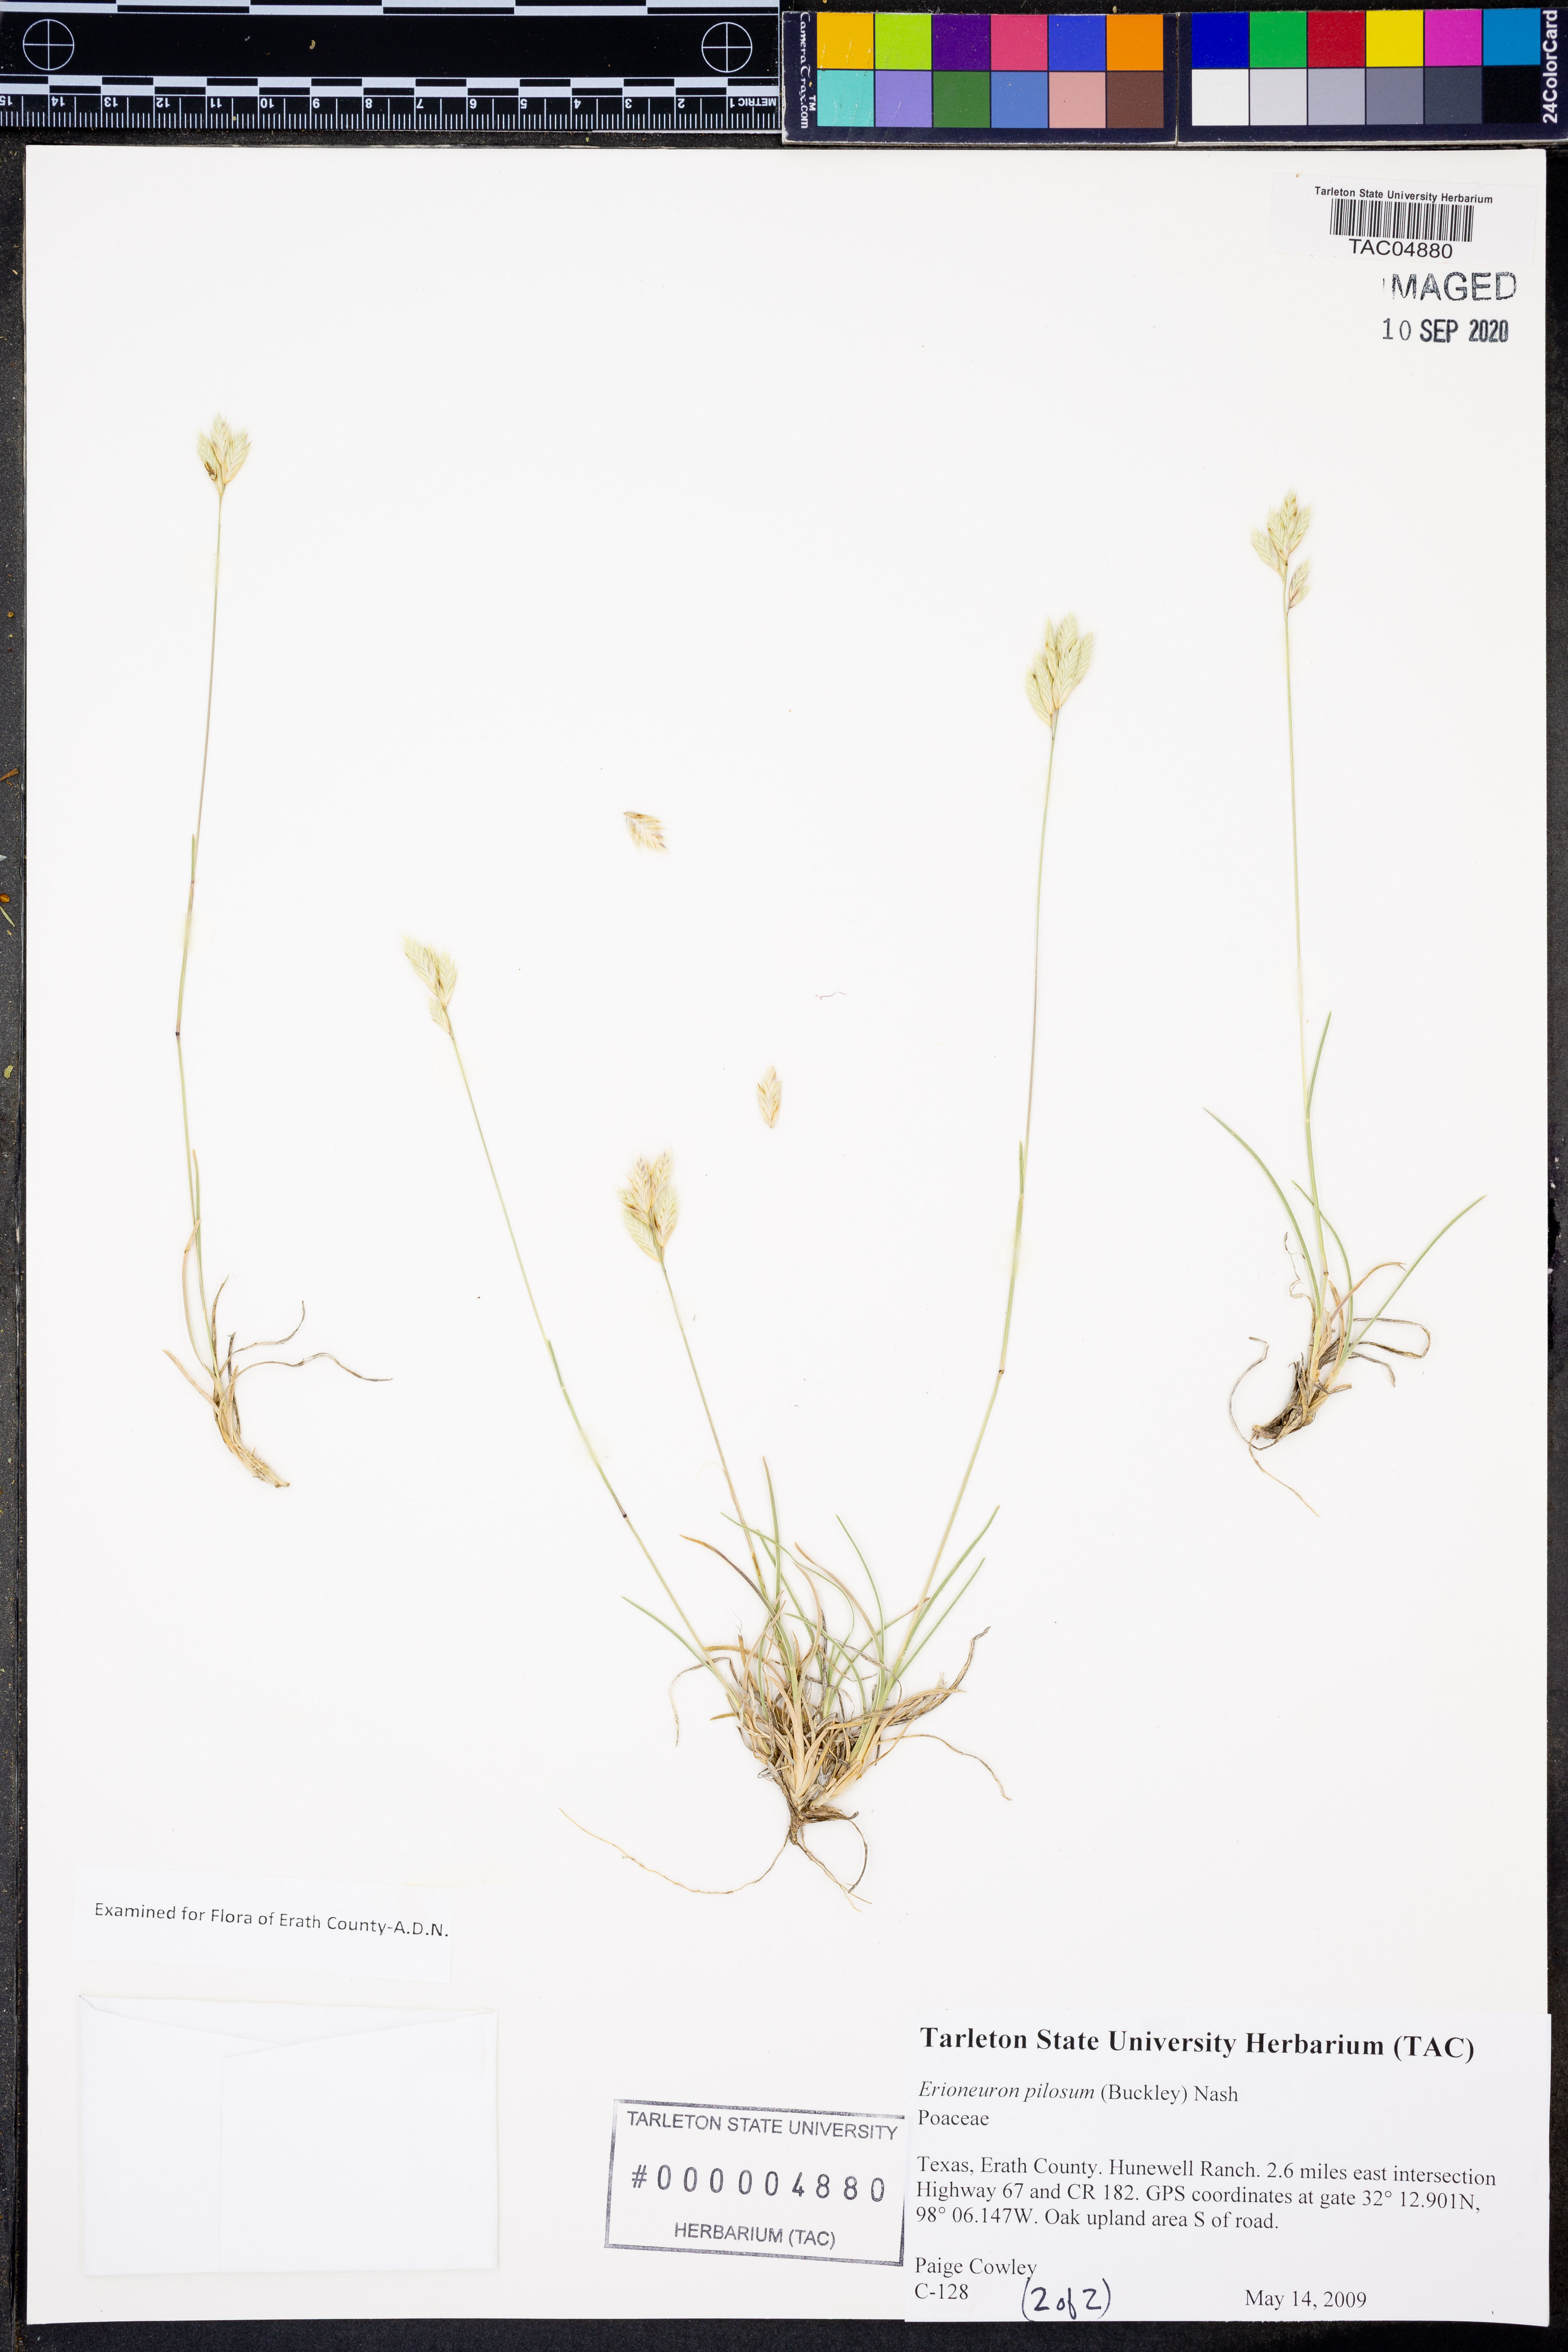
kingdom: Plantae
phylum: Tracheophyta
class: Liliopsida
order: Poales
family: Poaceae
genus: Erioneuron
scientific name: Erioneuron pilosum
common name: Hairy woolly grass
